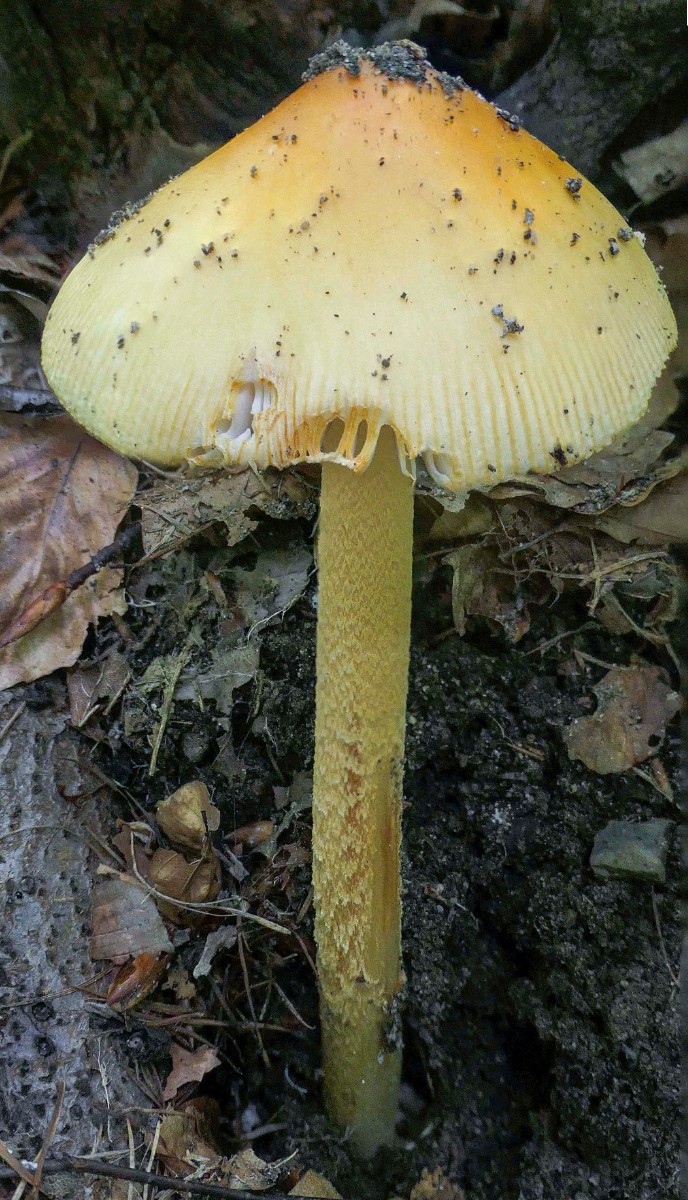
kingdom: Fungi
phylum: Basidiomycota
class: Agaricomycetes
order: Agaricales
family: Amanitaceae
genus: Amanita
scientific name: Amanita crocea
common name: gylden kam-fluesvamp
